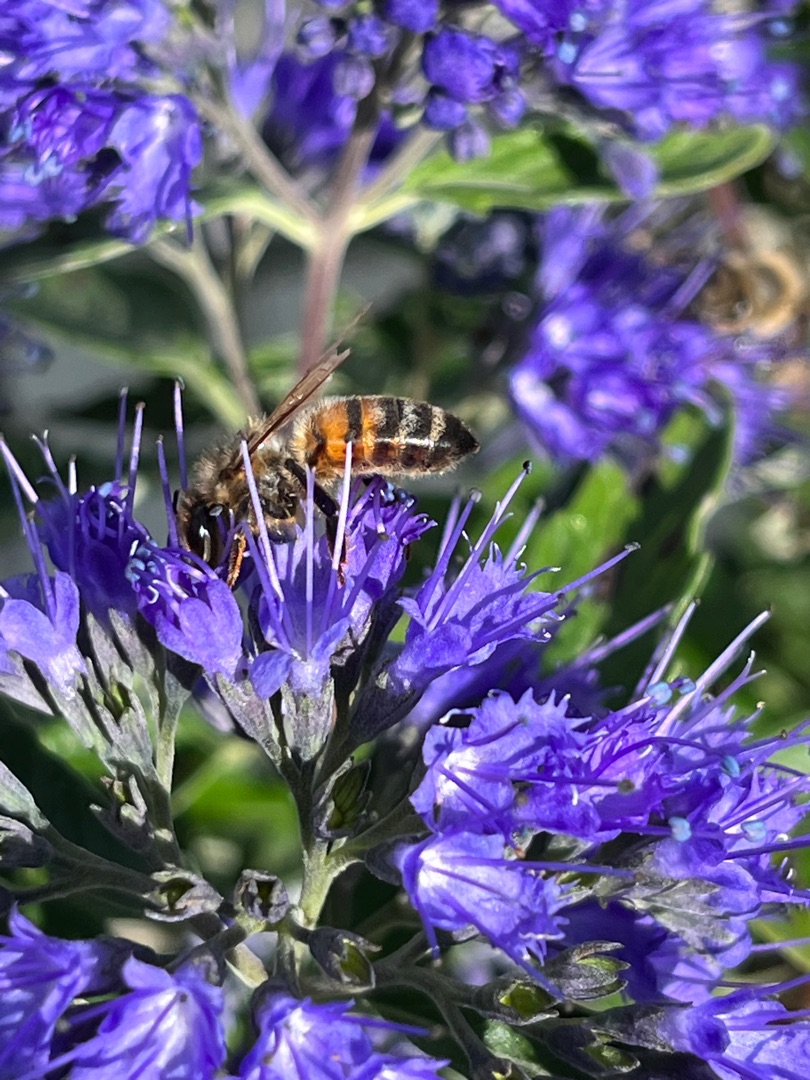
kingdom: Animalia
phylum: Arthropoda
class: Insecta
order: Hymenoptera
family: Apidae
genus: Apis
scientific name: Apis mellifera
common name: Honningbi
